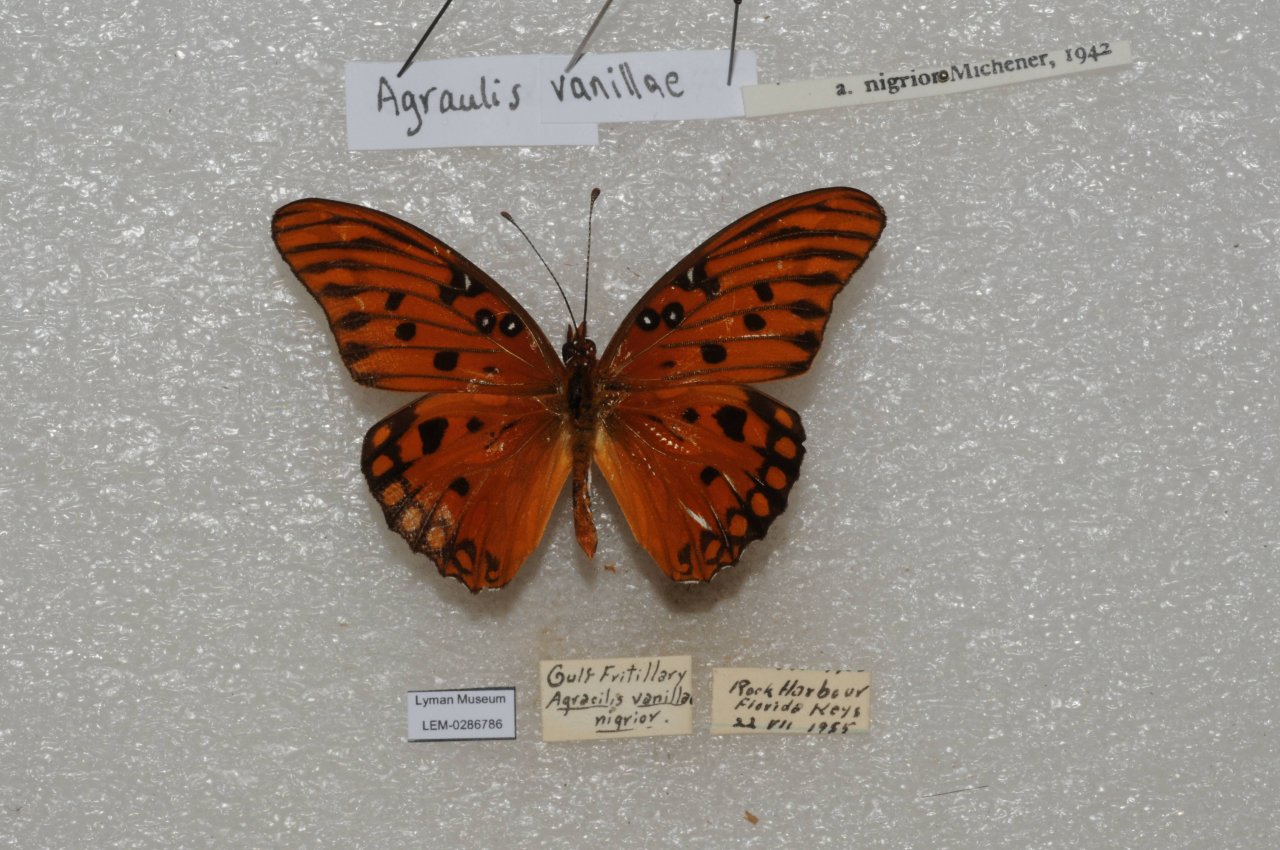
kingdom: Animalia
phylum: Arthropoda
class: Insecta
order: Lepidoptera
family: Nymphalidae
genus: Dione
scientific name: Dione vanillae
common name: Gulf Fritillary
